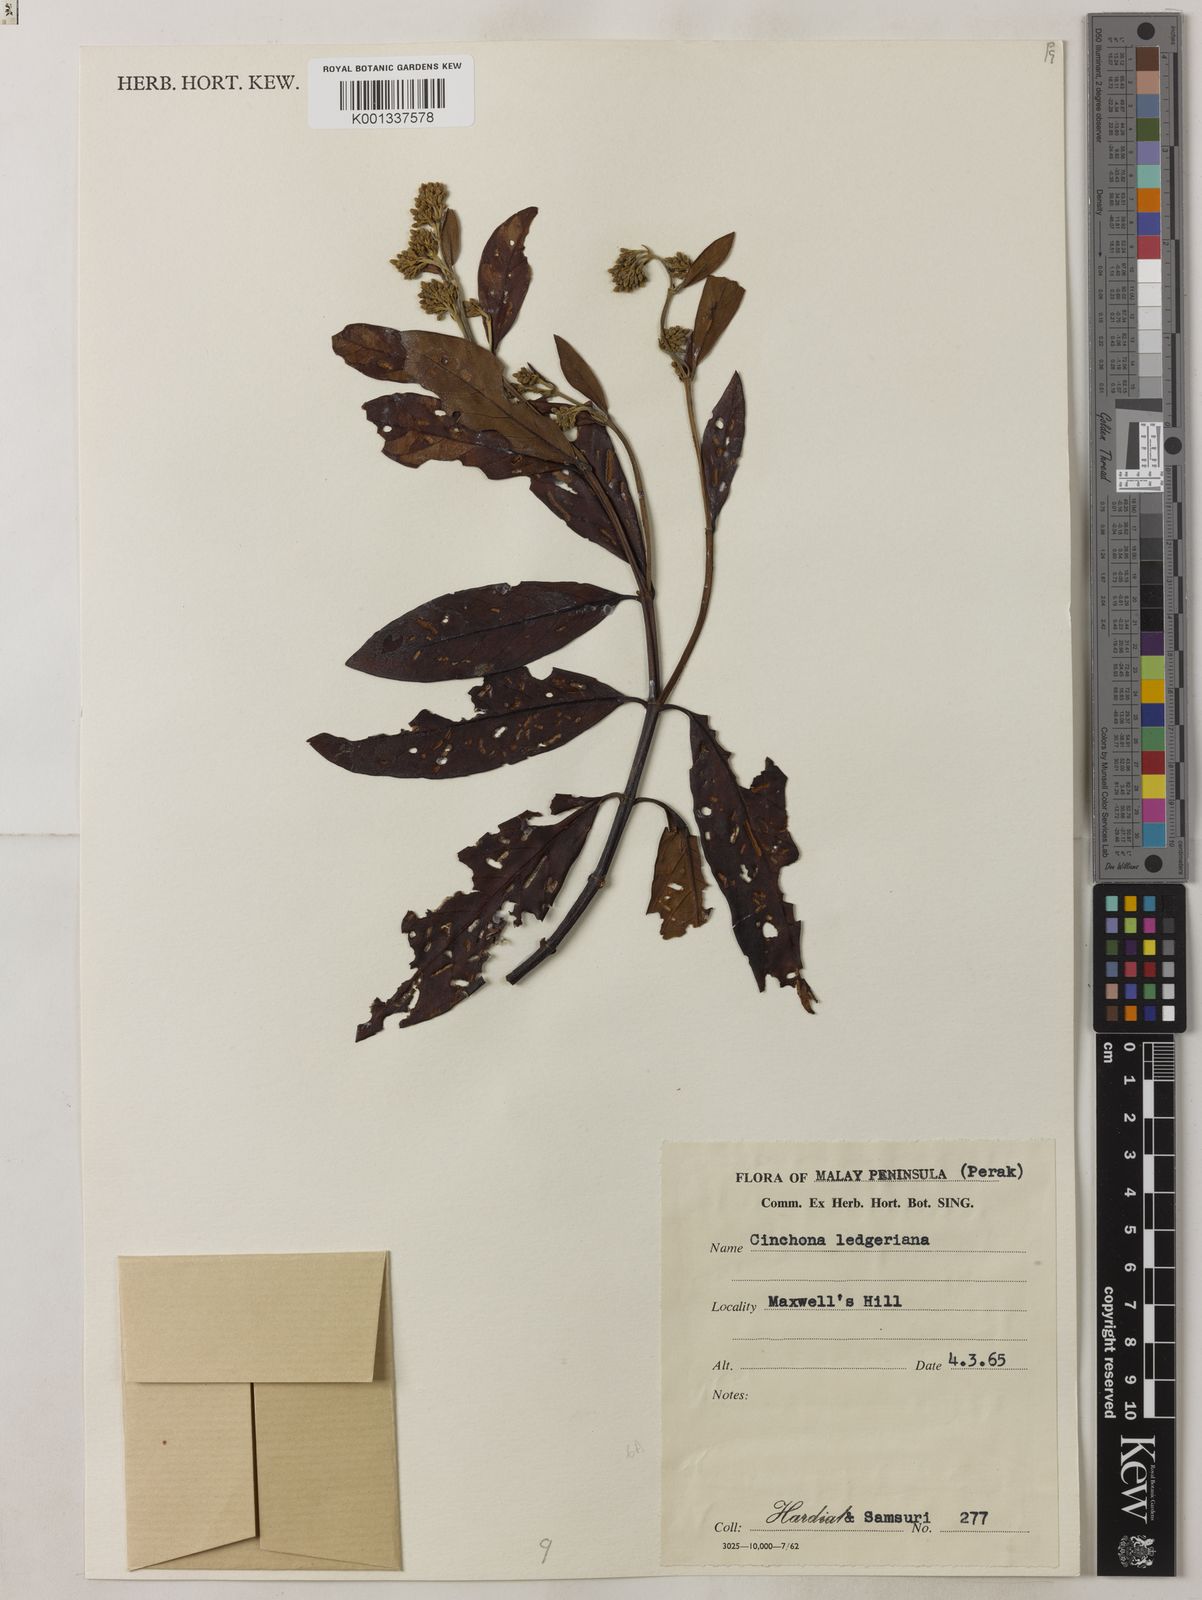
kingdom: Plantae
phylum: Tracheophyta
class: Magnoliopsida
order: Gentianales
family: Rubiaceae
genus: Cinchona
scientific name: Cinchona calisaya
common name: Ledgerbark
